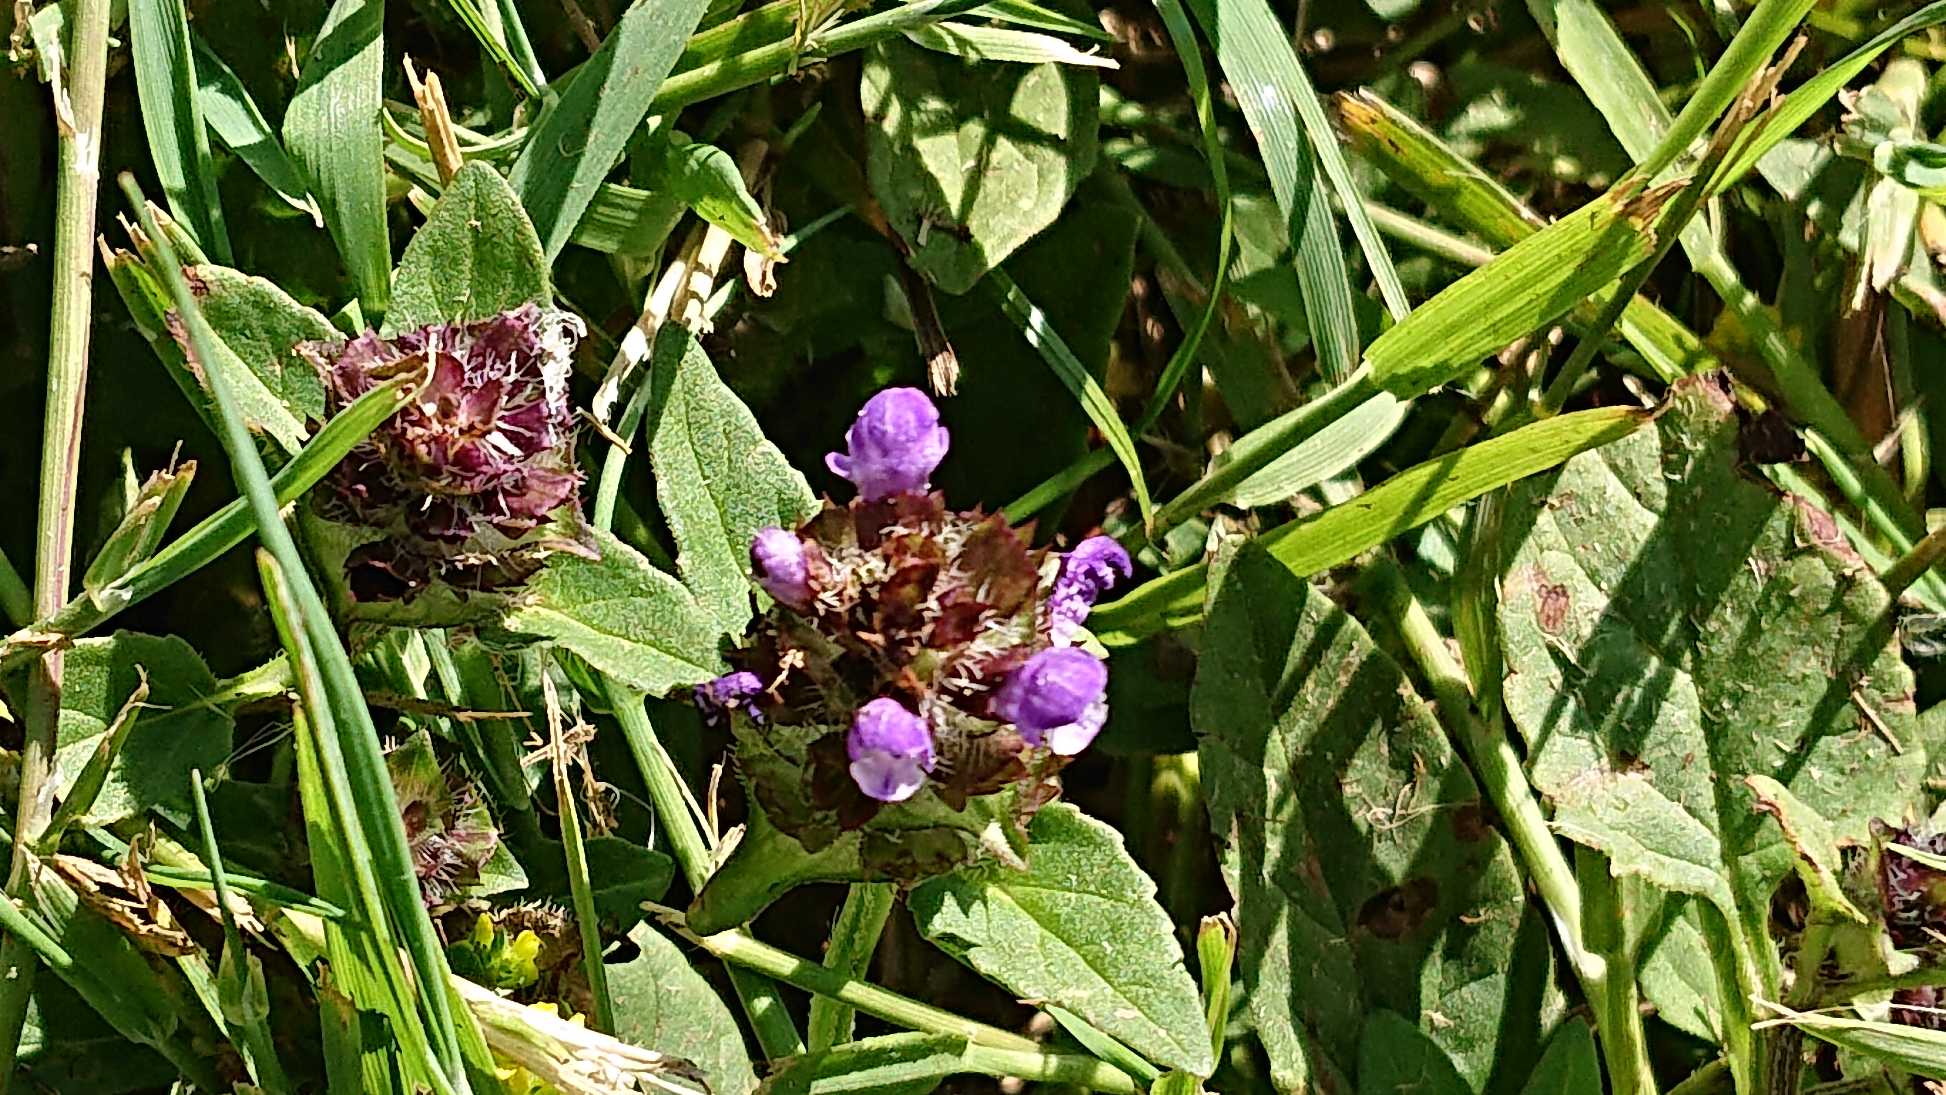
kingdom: Plantae
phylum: Tracheophyta
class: Magnoliopsida
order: Lamiales
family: Lamiaceae
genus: Prunella
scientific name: Prunella vulgaris
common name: Almindelig brunelle
